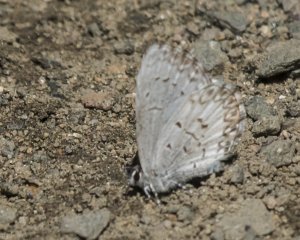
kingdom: Animalia
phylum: Arthropoda
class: Insecta
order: Lepidoptera
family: Lycaenidae
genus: Cyaniris
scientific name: Cyaniris neglecta
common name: Summer Azure
